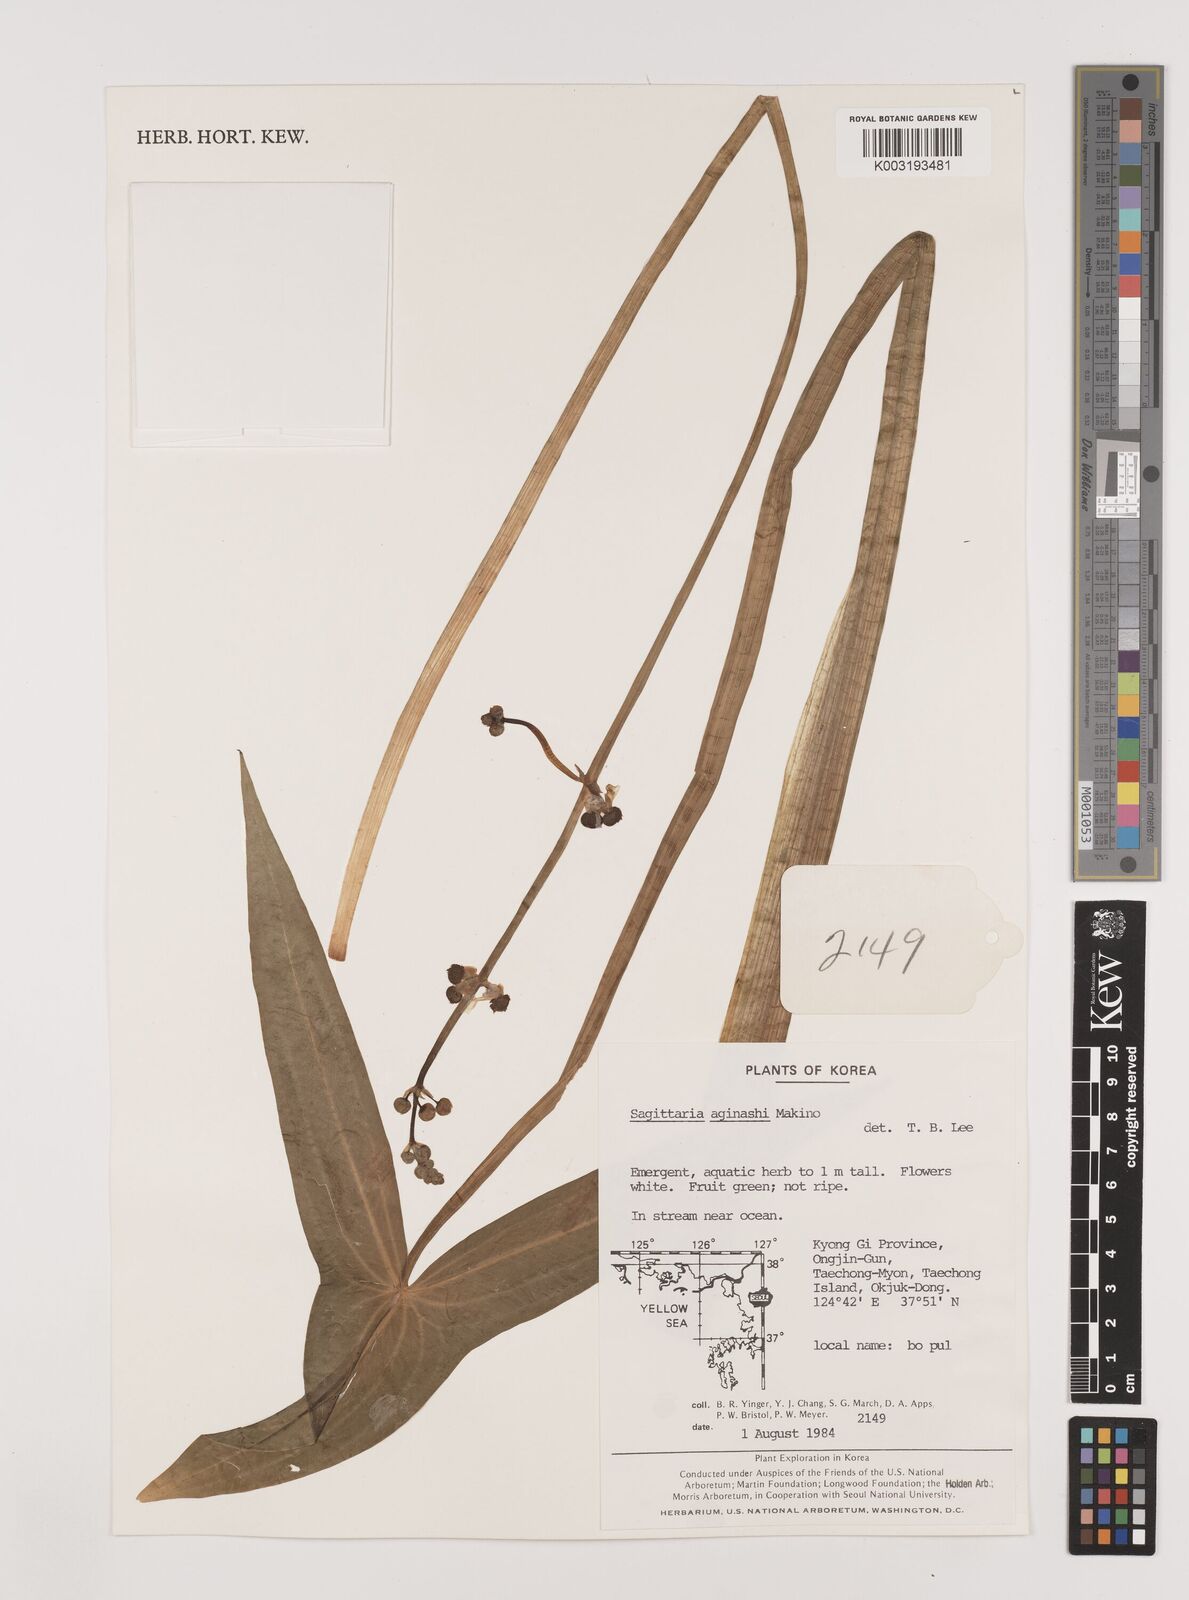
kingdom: Plantae
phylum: Tracheophyta
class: Liliopsida
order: Alismatales
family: Alismataceae
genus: Sagittaria
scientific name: Sagittaria aginashi
